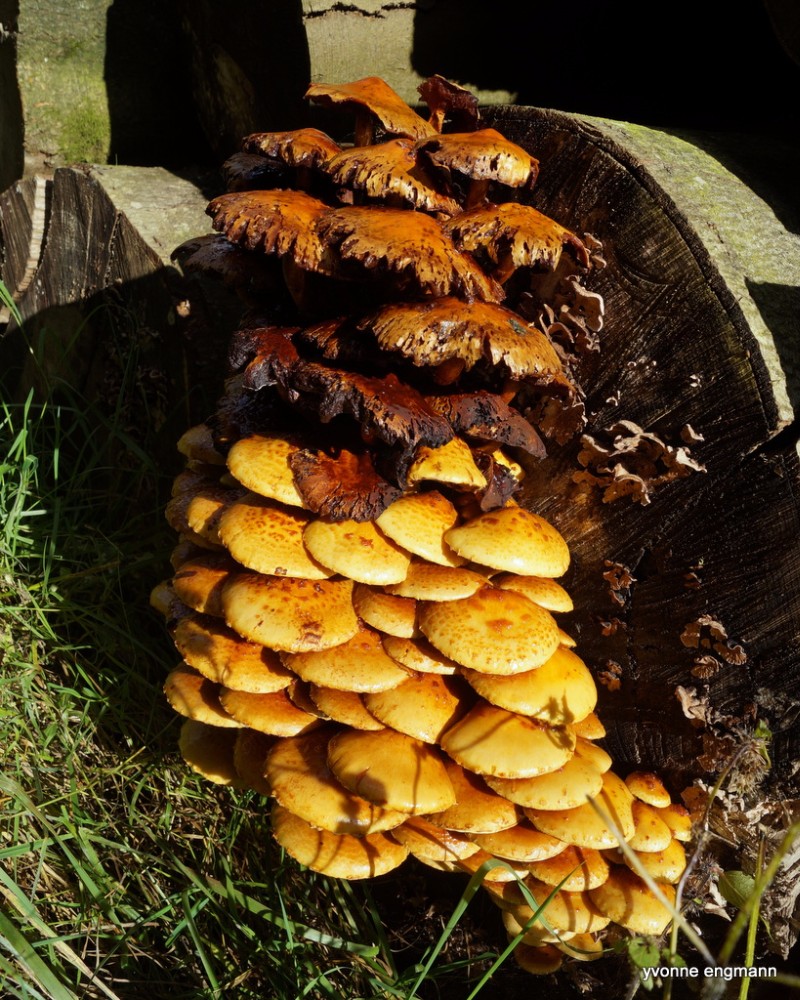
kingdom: Fungi
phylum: Basidiomycota
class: Agaricomycetes
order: Agaricales
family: Strophariaceae
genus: Pholiota
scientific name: Pholiota adiposa
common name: højtsiddende skælhat
